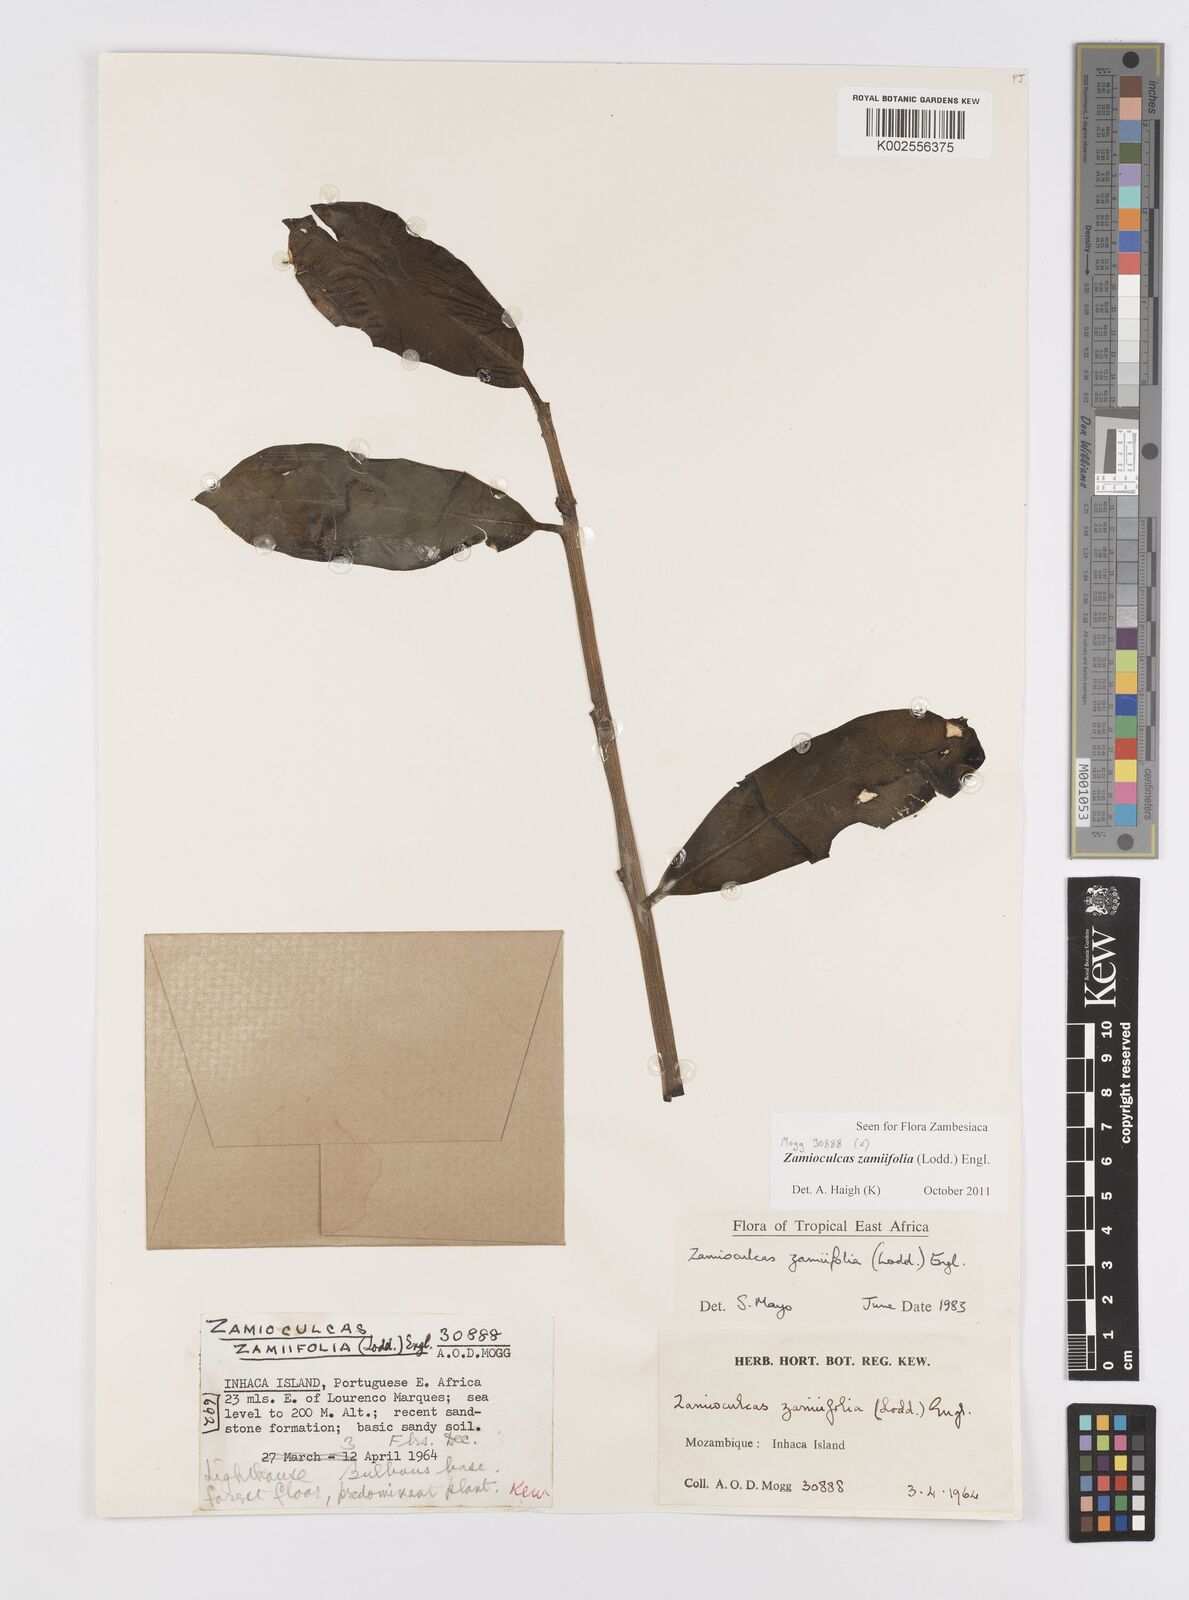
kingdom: Plantae
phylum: Tracheophyta
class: Liliopsida
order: Alismatales
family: Araceae
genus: Zamioculcas
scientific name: Zamioculcas zamiifolia
